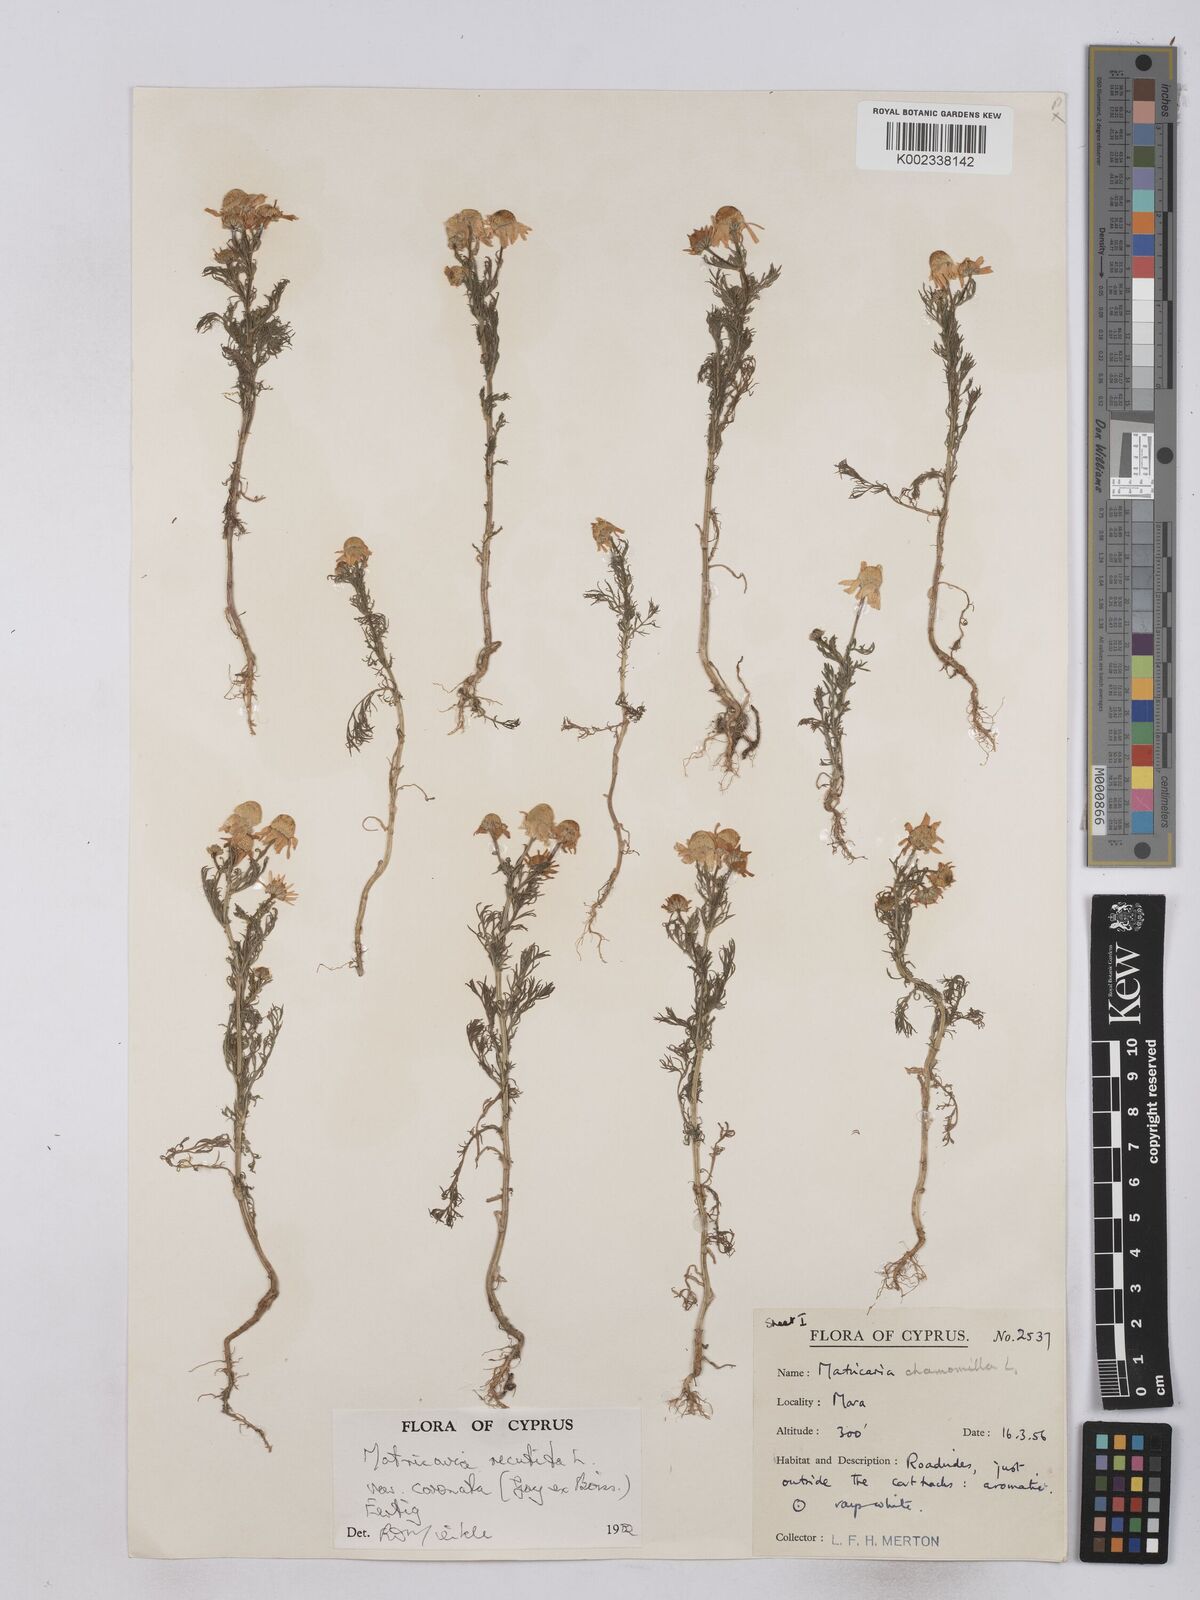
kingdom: Plantae
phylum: Tracheophyta
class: Magnoliopsida
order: Asterales
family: Asteraceae
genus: Matricaria
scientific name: Matricaria chamomilla
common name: Scented mayweed
